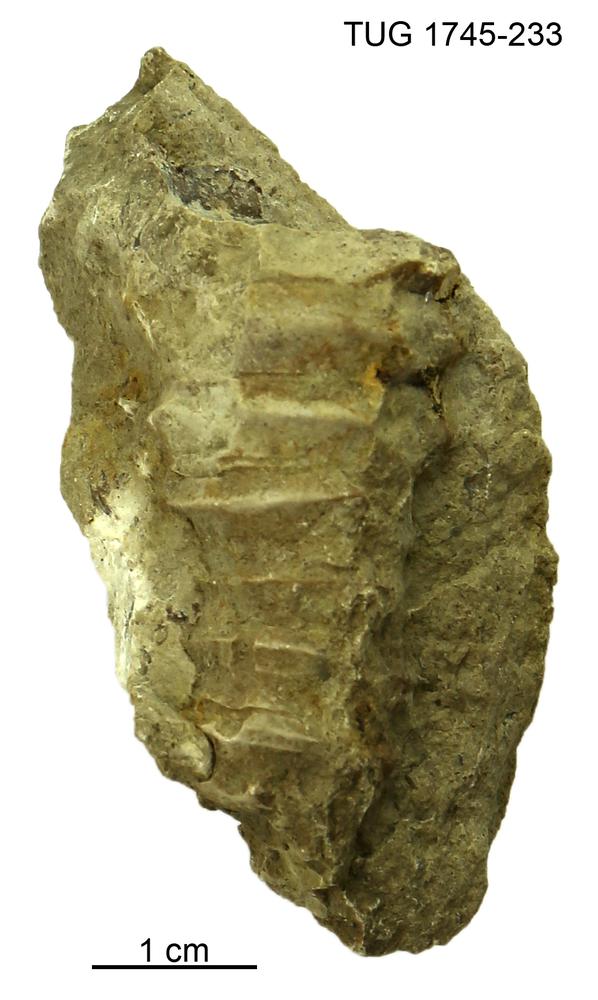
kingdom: Animalia
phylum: Mollusca
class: Cephalopoda
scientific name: Cephalopoda
